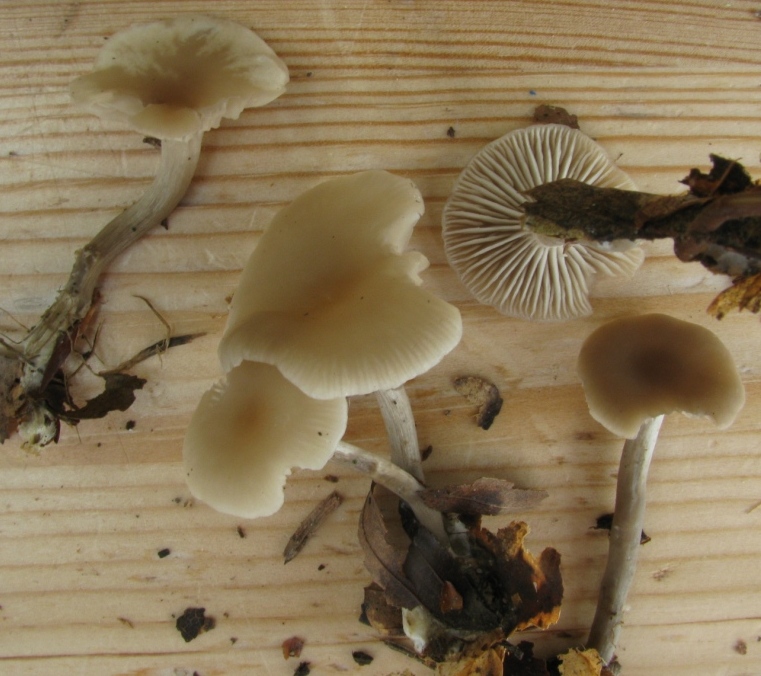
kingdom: Fungi
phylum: Basidiomycota
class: Agaricomycetes
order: Agaricales
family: Tricholomataceae
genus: Clitocybe
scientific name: Clitocybe metachroa
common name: grå tragthat
